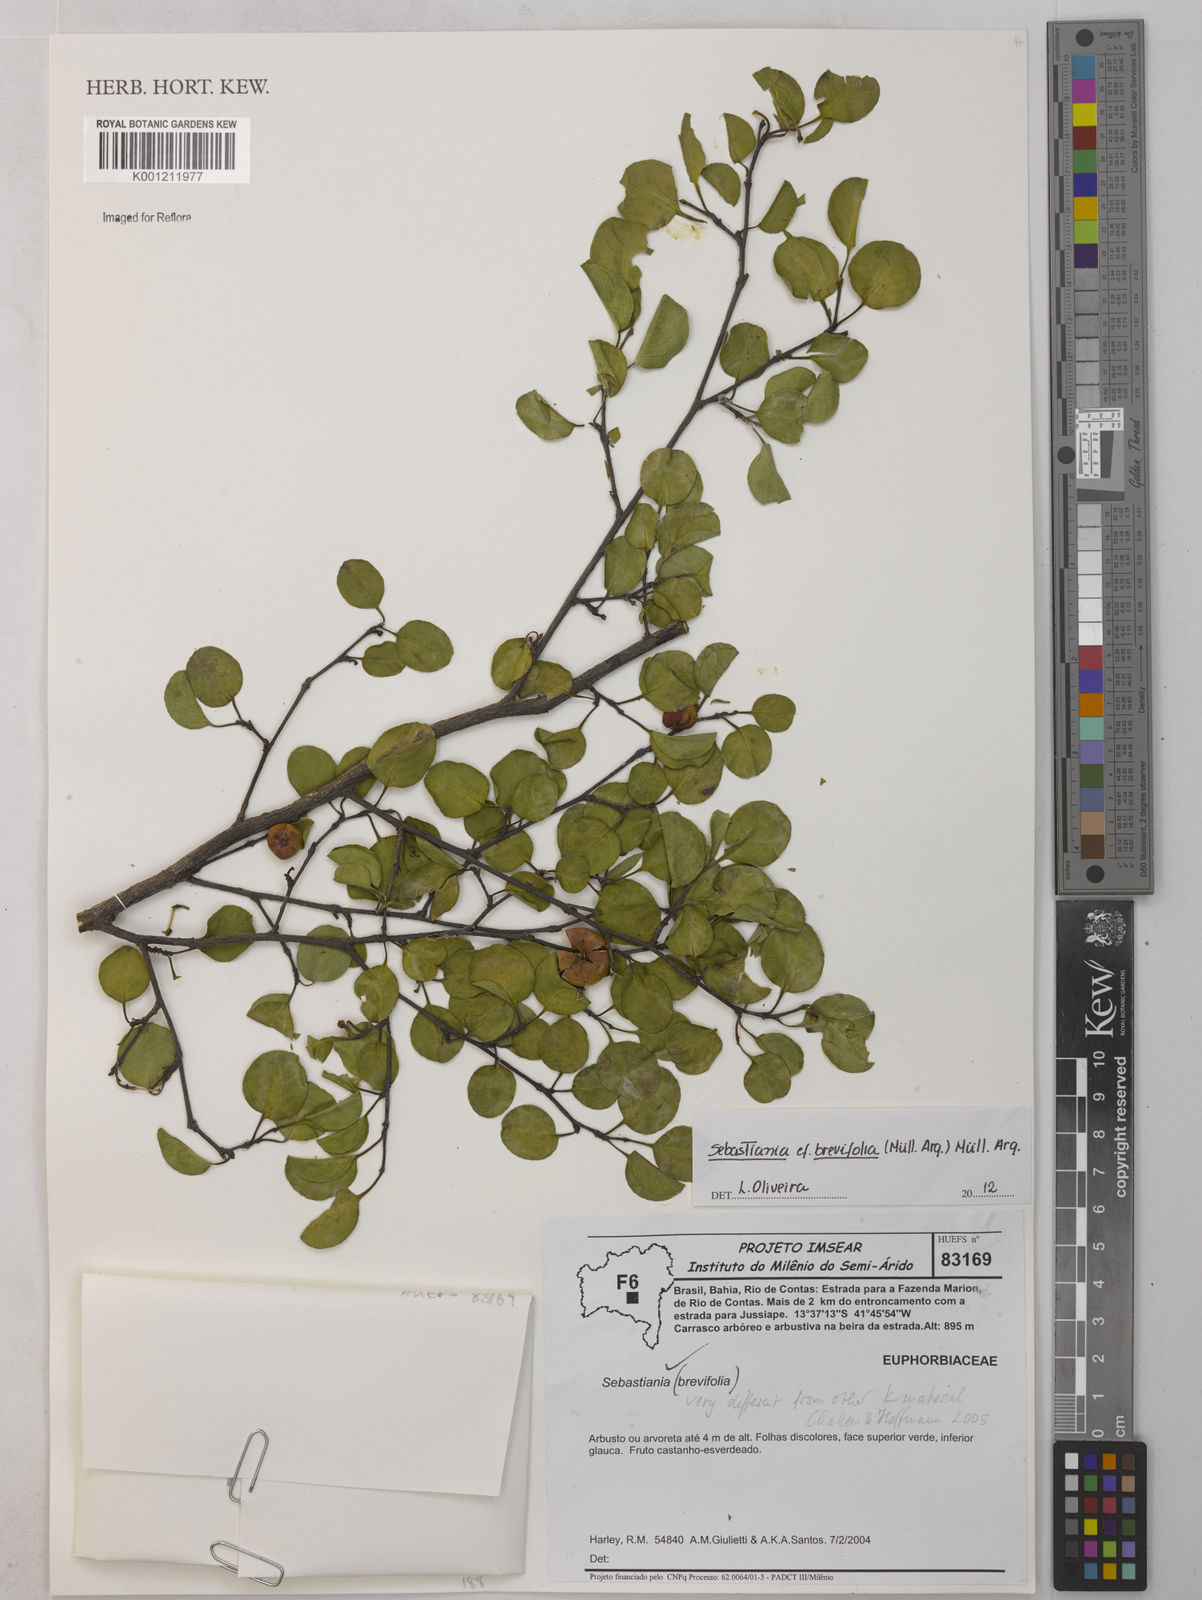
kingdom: Plantae
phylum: Tracheophyta
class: Magnoliopsida
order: Malpighiales
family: Euphorbiaceae
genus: Sebastiania
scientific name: Sebastiania
